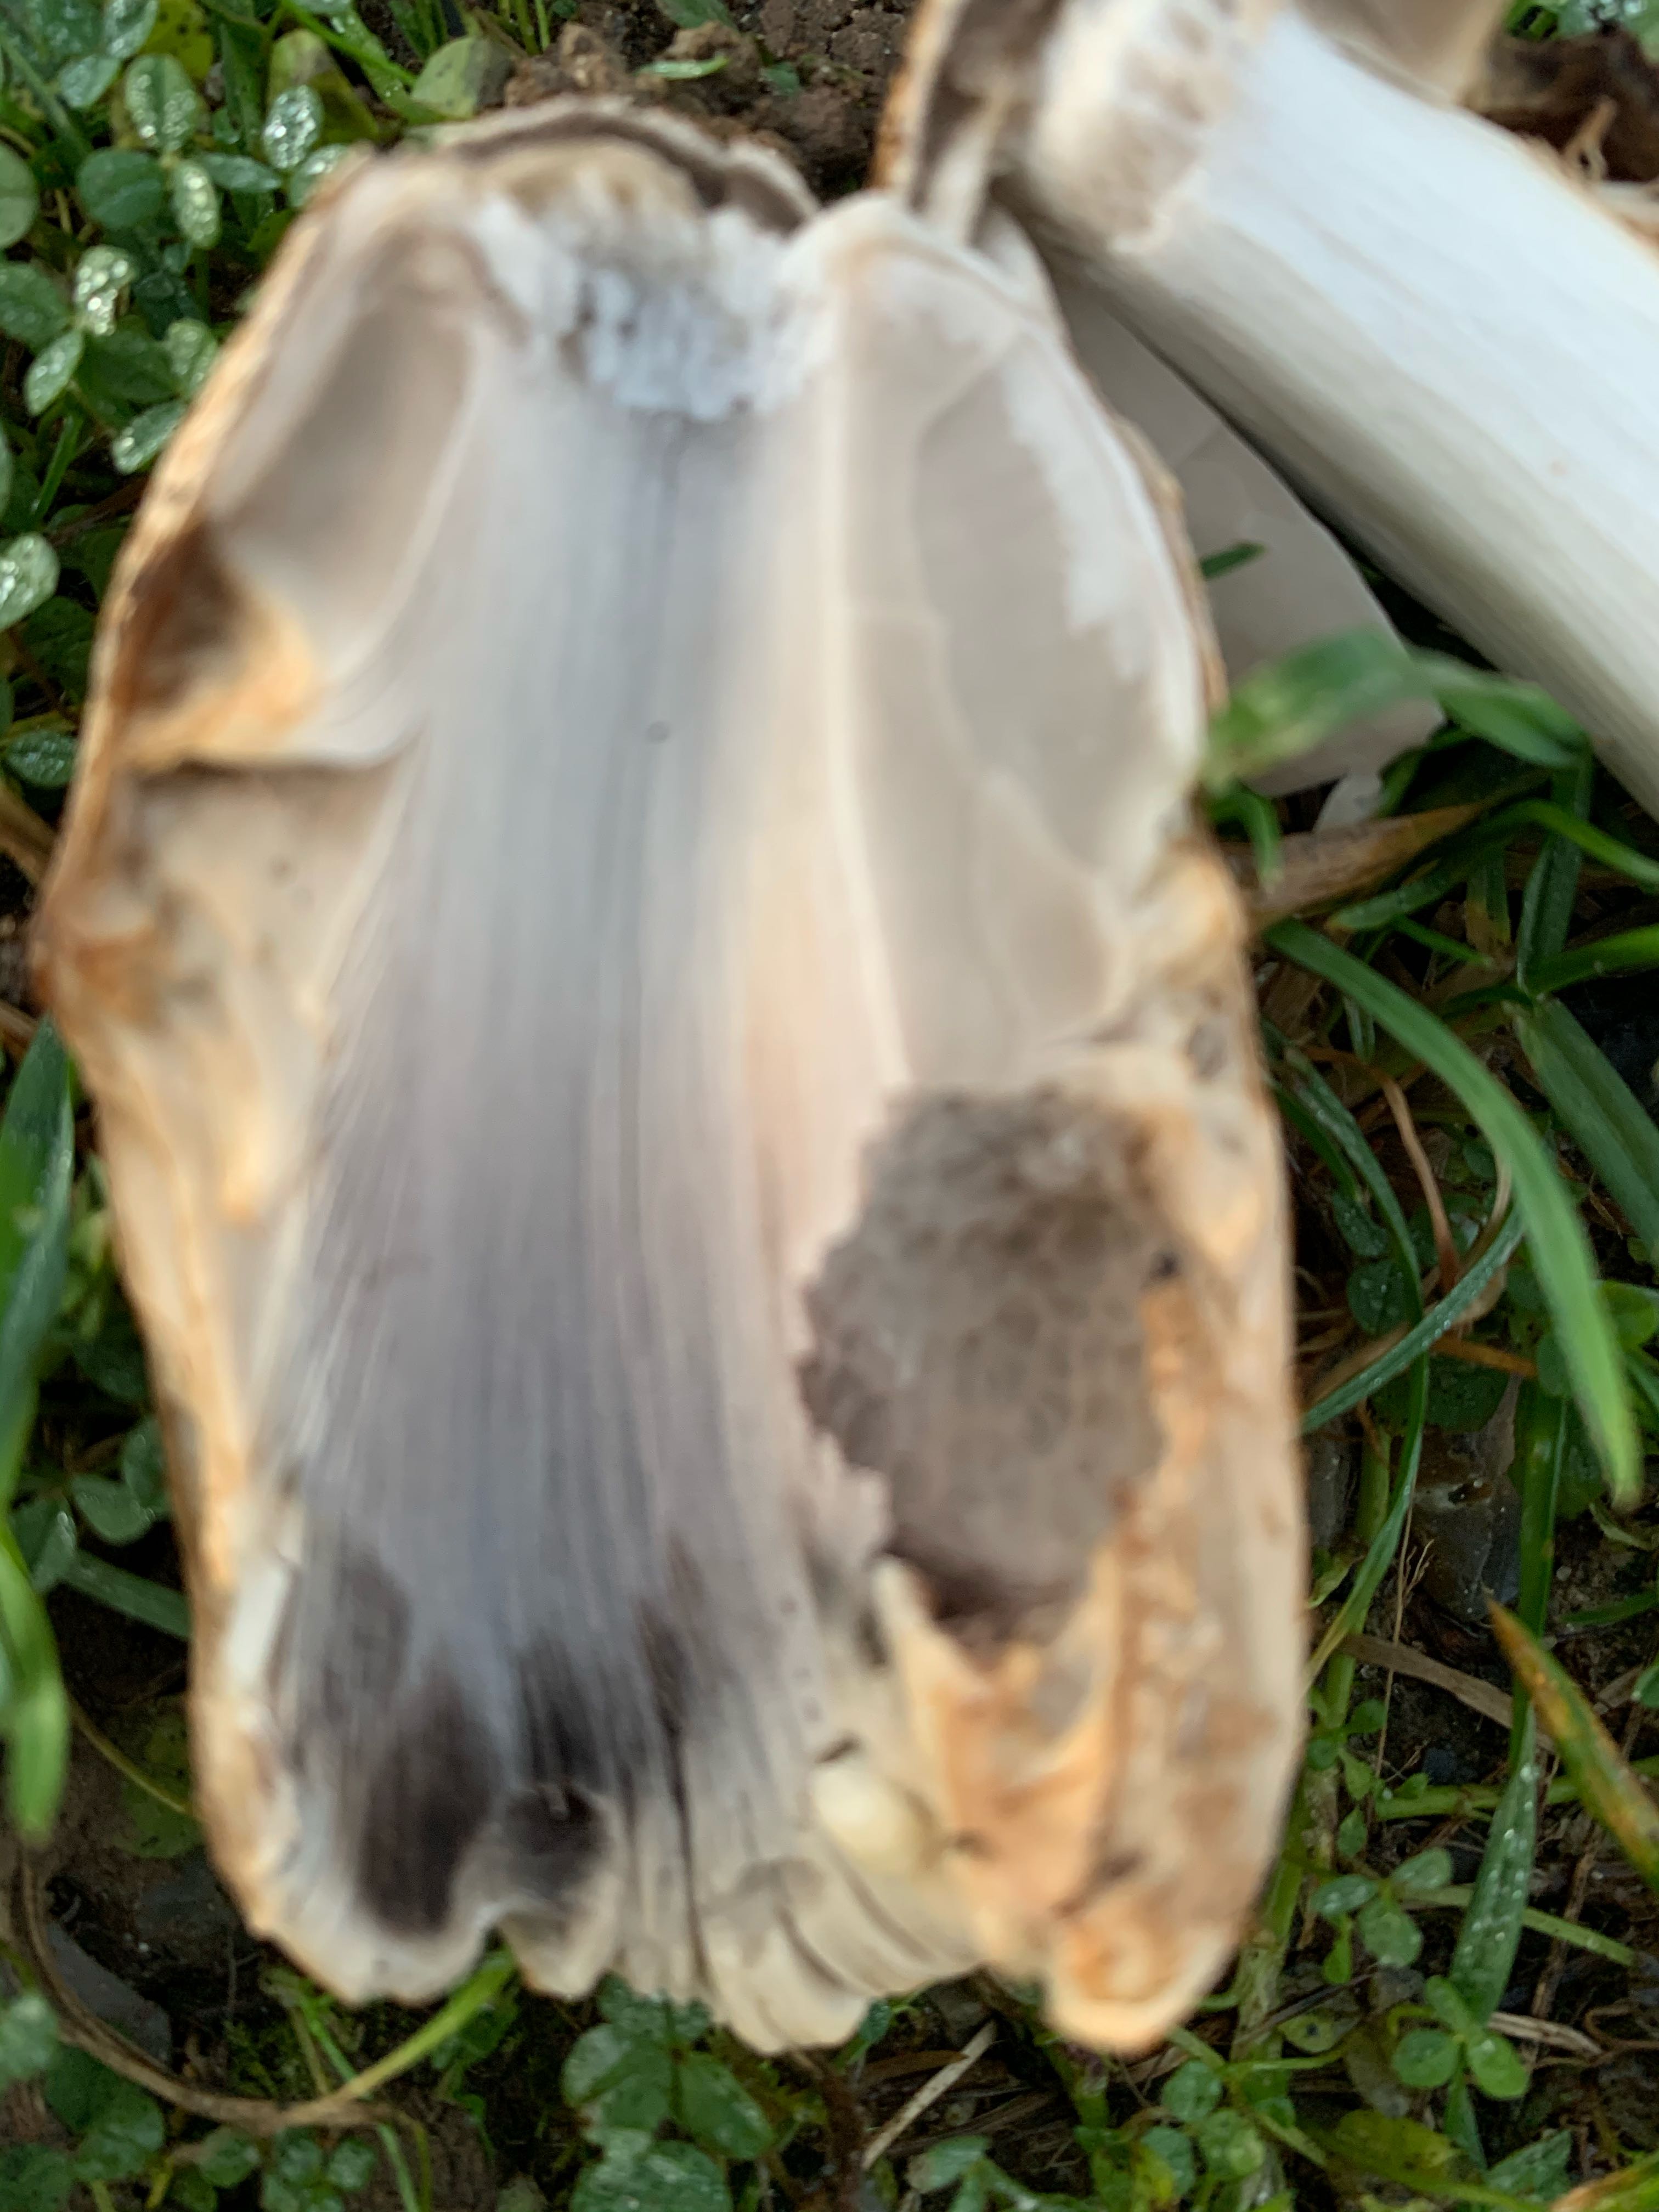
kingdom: Fungi
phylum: Basidiomycota
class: Agaricomycetes
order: Agaricales
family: Psathyrellaceae
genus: Coprinopsis
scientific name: Coprinopsis romagnesiana
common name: brunskællet blækhat
